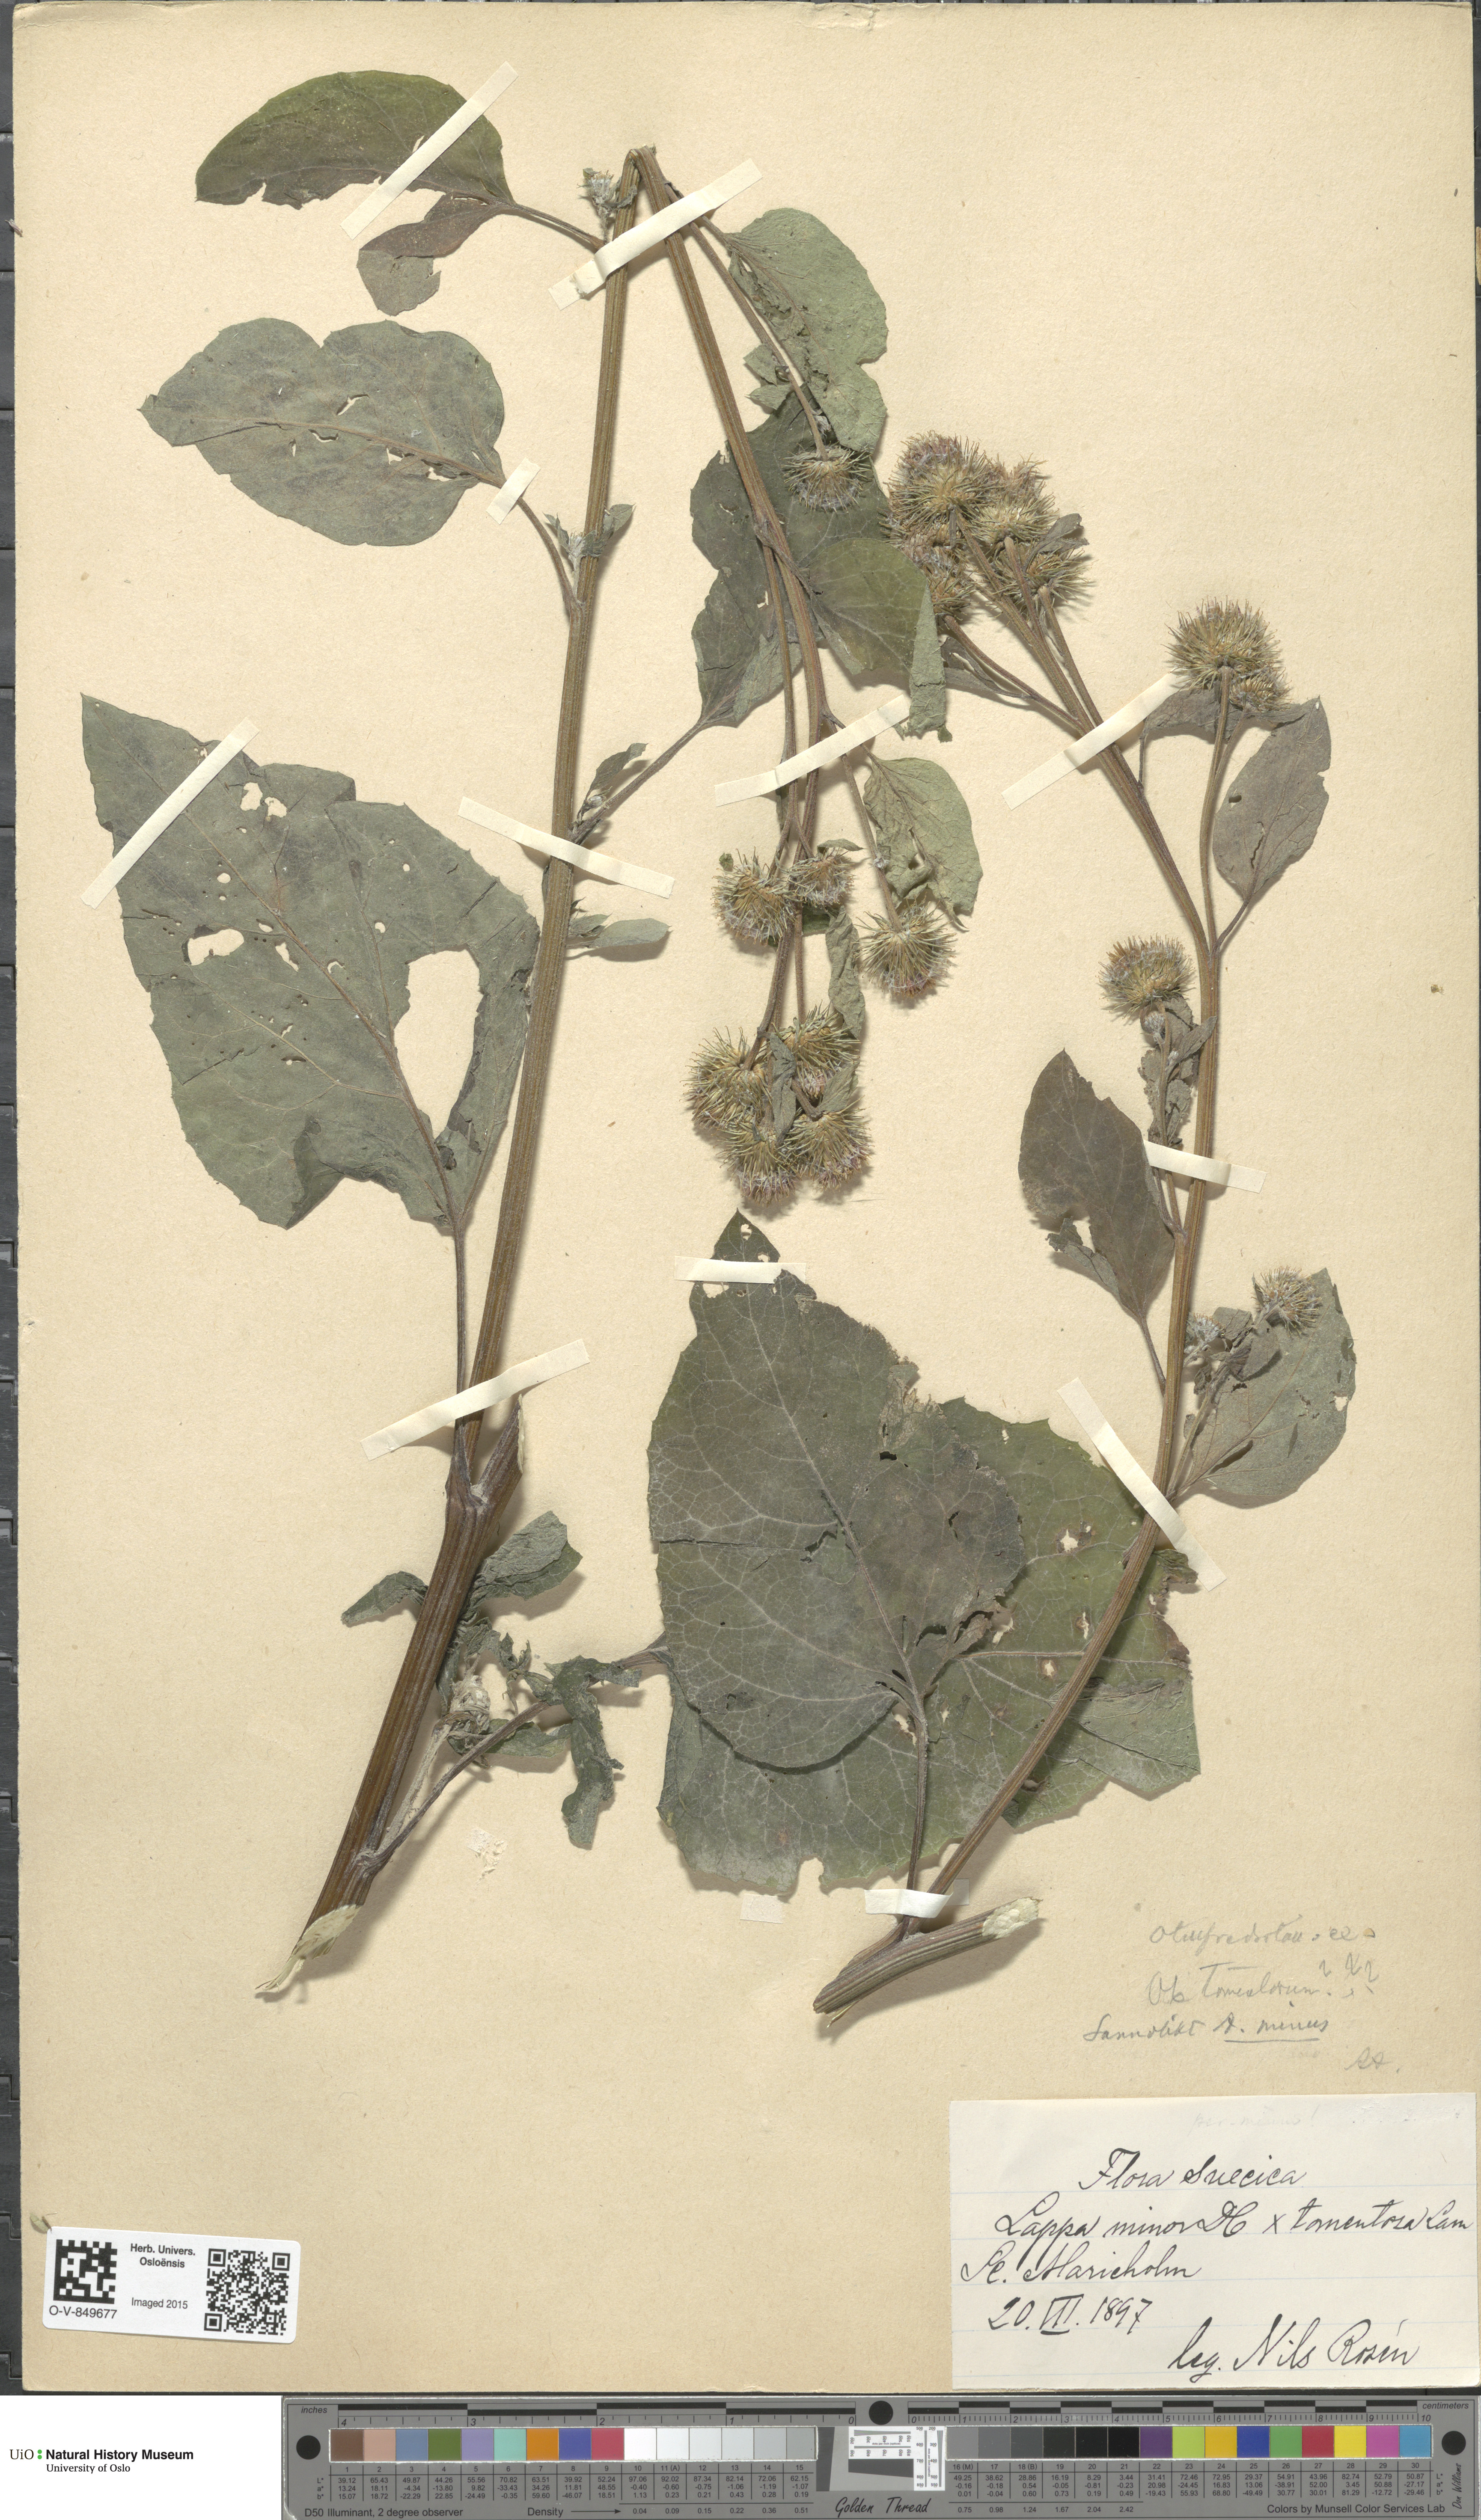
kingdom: Plantae
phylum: Tracheophyta
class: Magnoliopsida
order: Asterales
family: Asteraceae
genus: Arctium
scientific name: Arctium
